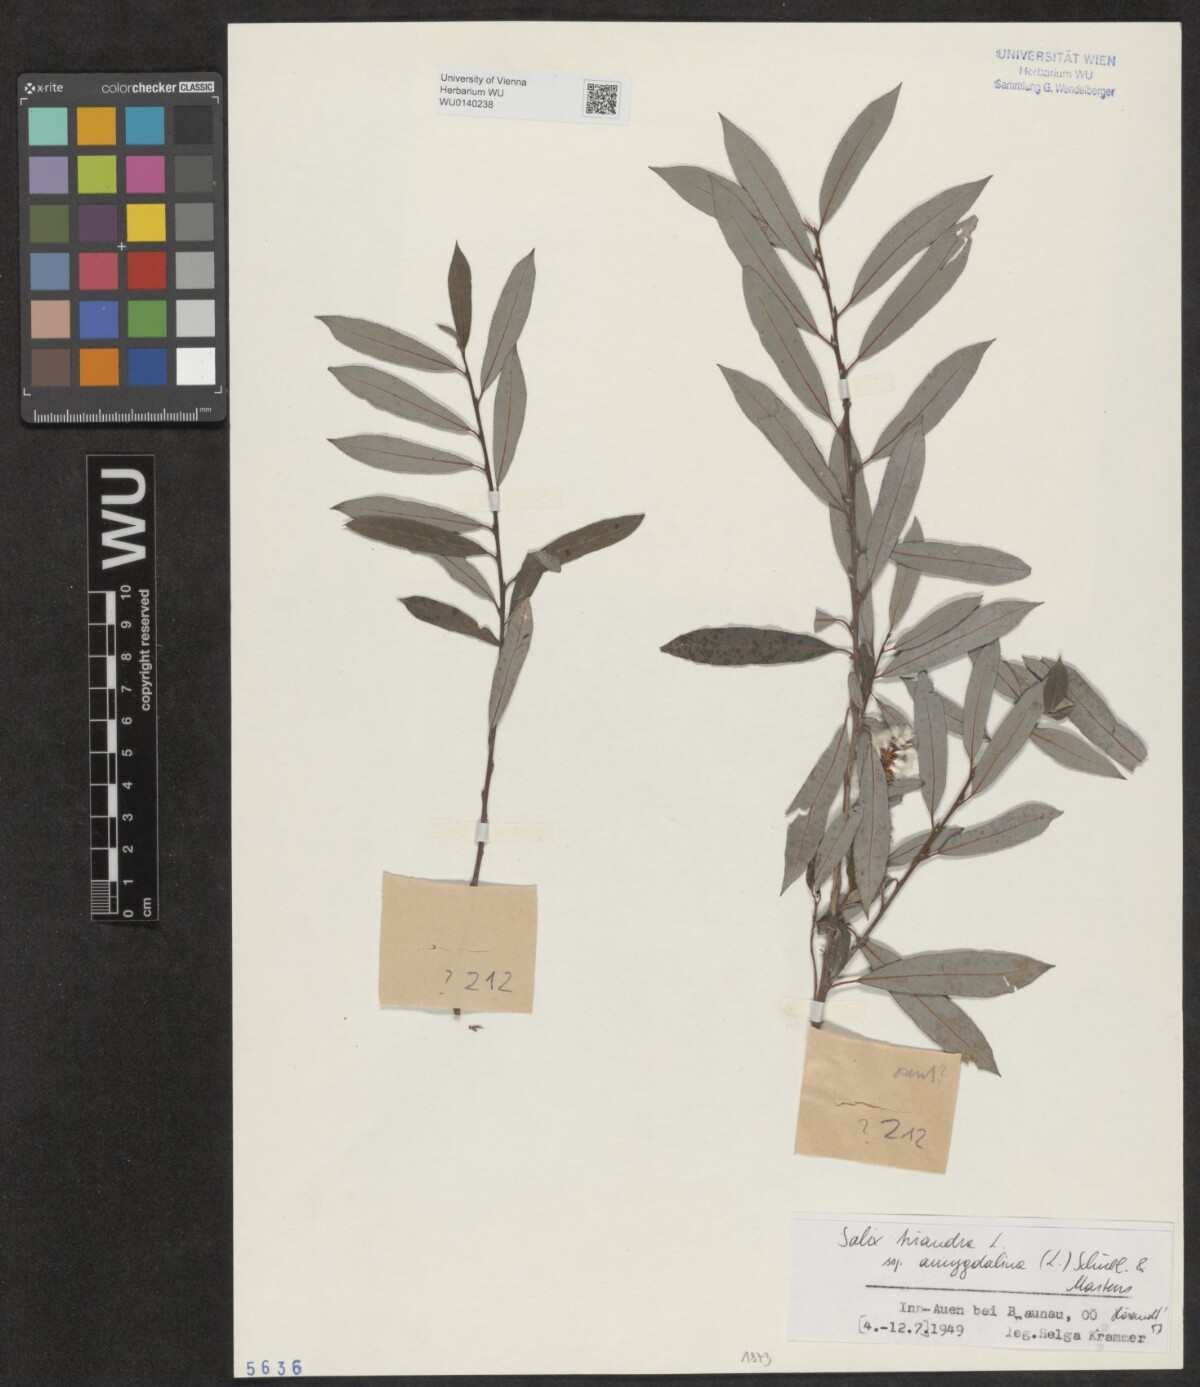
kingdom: Plantae
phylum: Tracheophyta
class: Magnoliopsida
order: Malpighiales
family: Salicaceae
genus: Salix
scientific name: Salix triandra
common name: Almond willow
